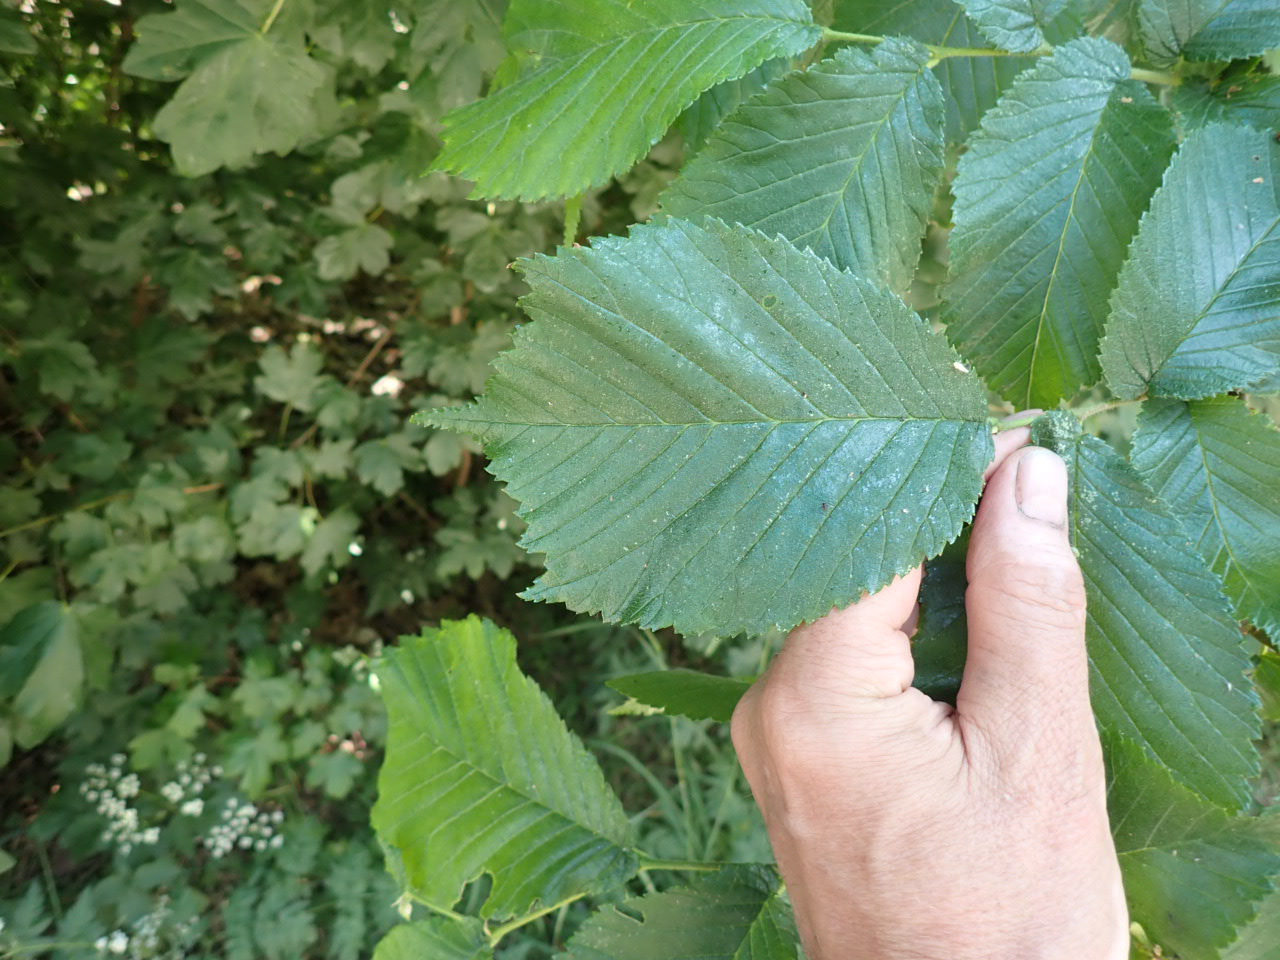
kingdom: Plantae
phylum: Tracheophyta
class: Magnoliopsida
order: Rosales
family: Ulmaceae
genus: Ulmus
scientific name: Ulmus glabra
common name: Skov-elm/storbladet elm
